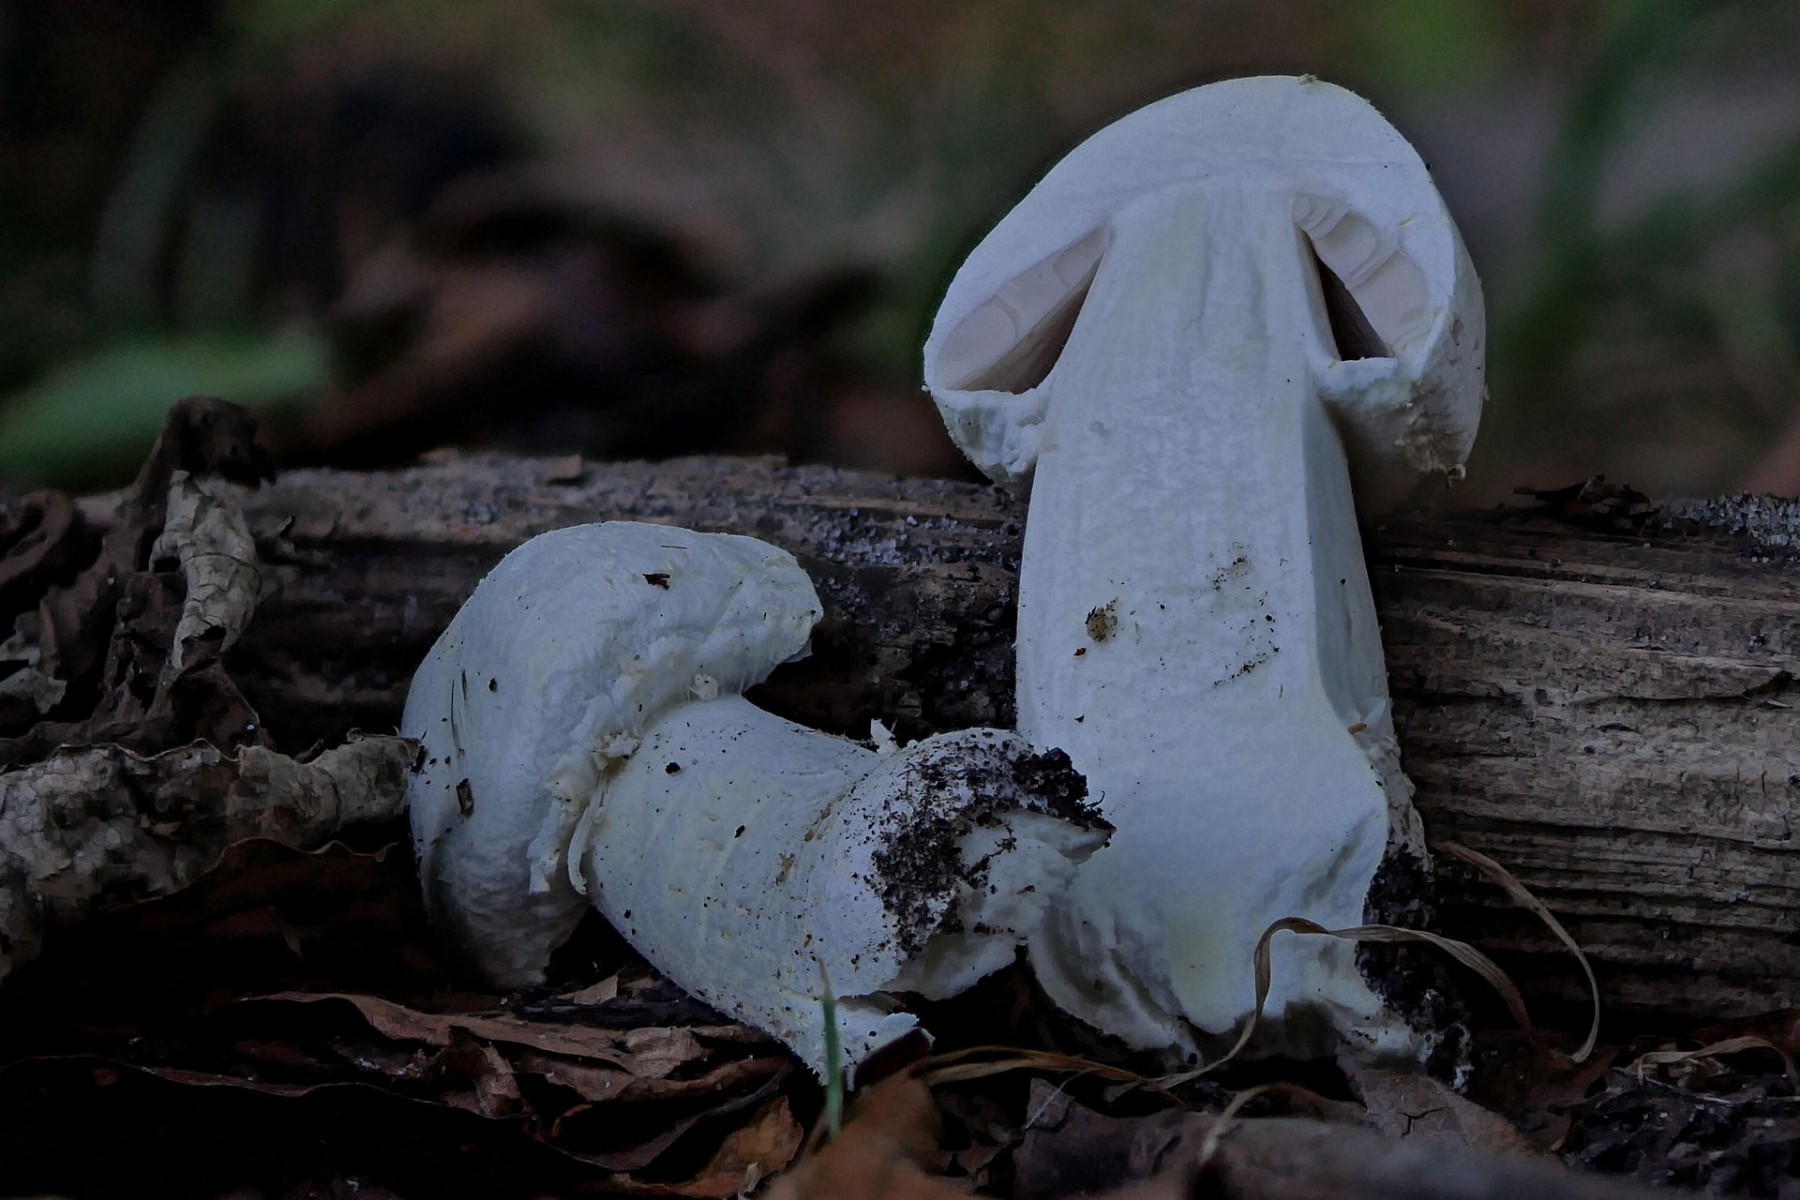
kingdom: Fungi
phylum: Basidiomycota
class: Agaricomycetes
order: Agaricales
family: Agaricaceae
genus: Agaricus
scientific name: Agaricus
